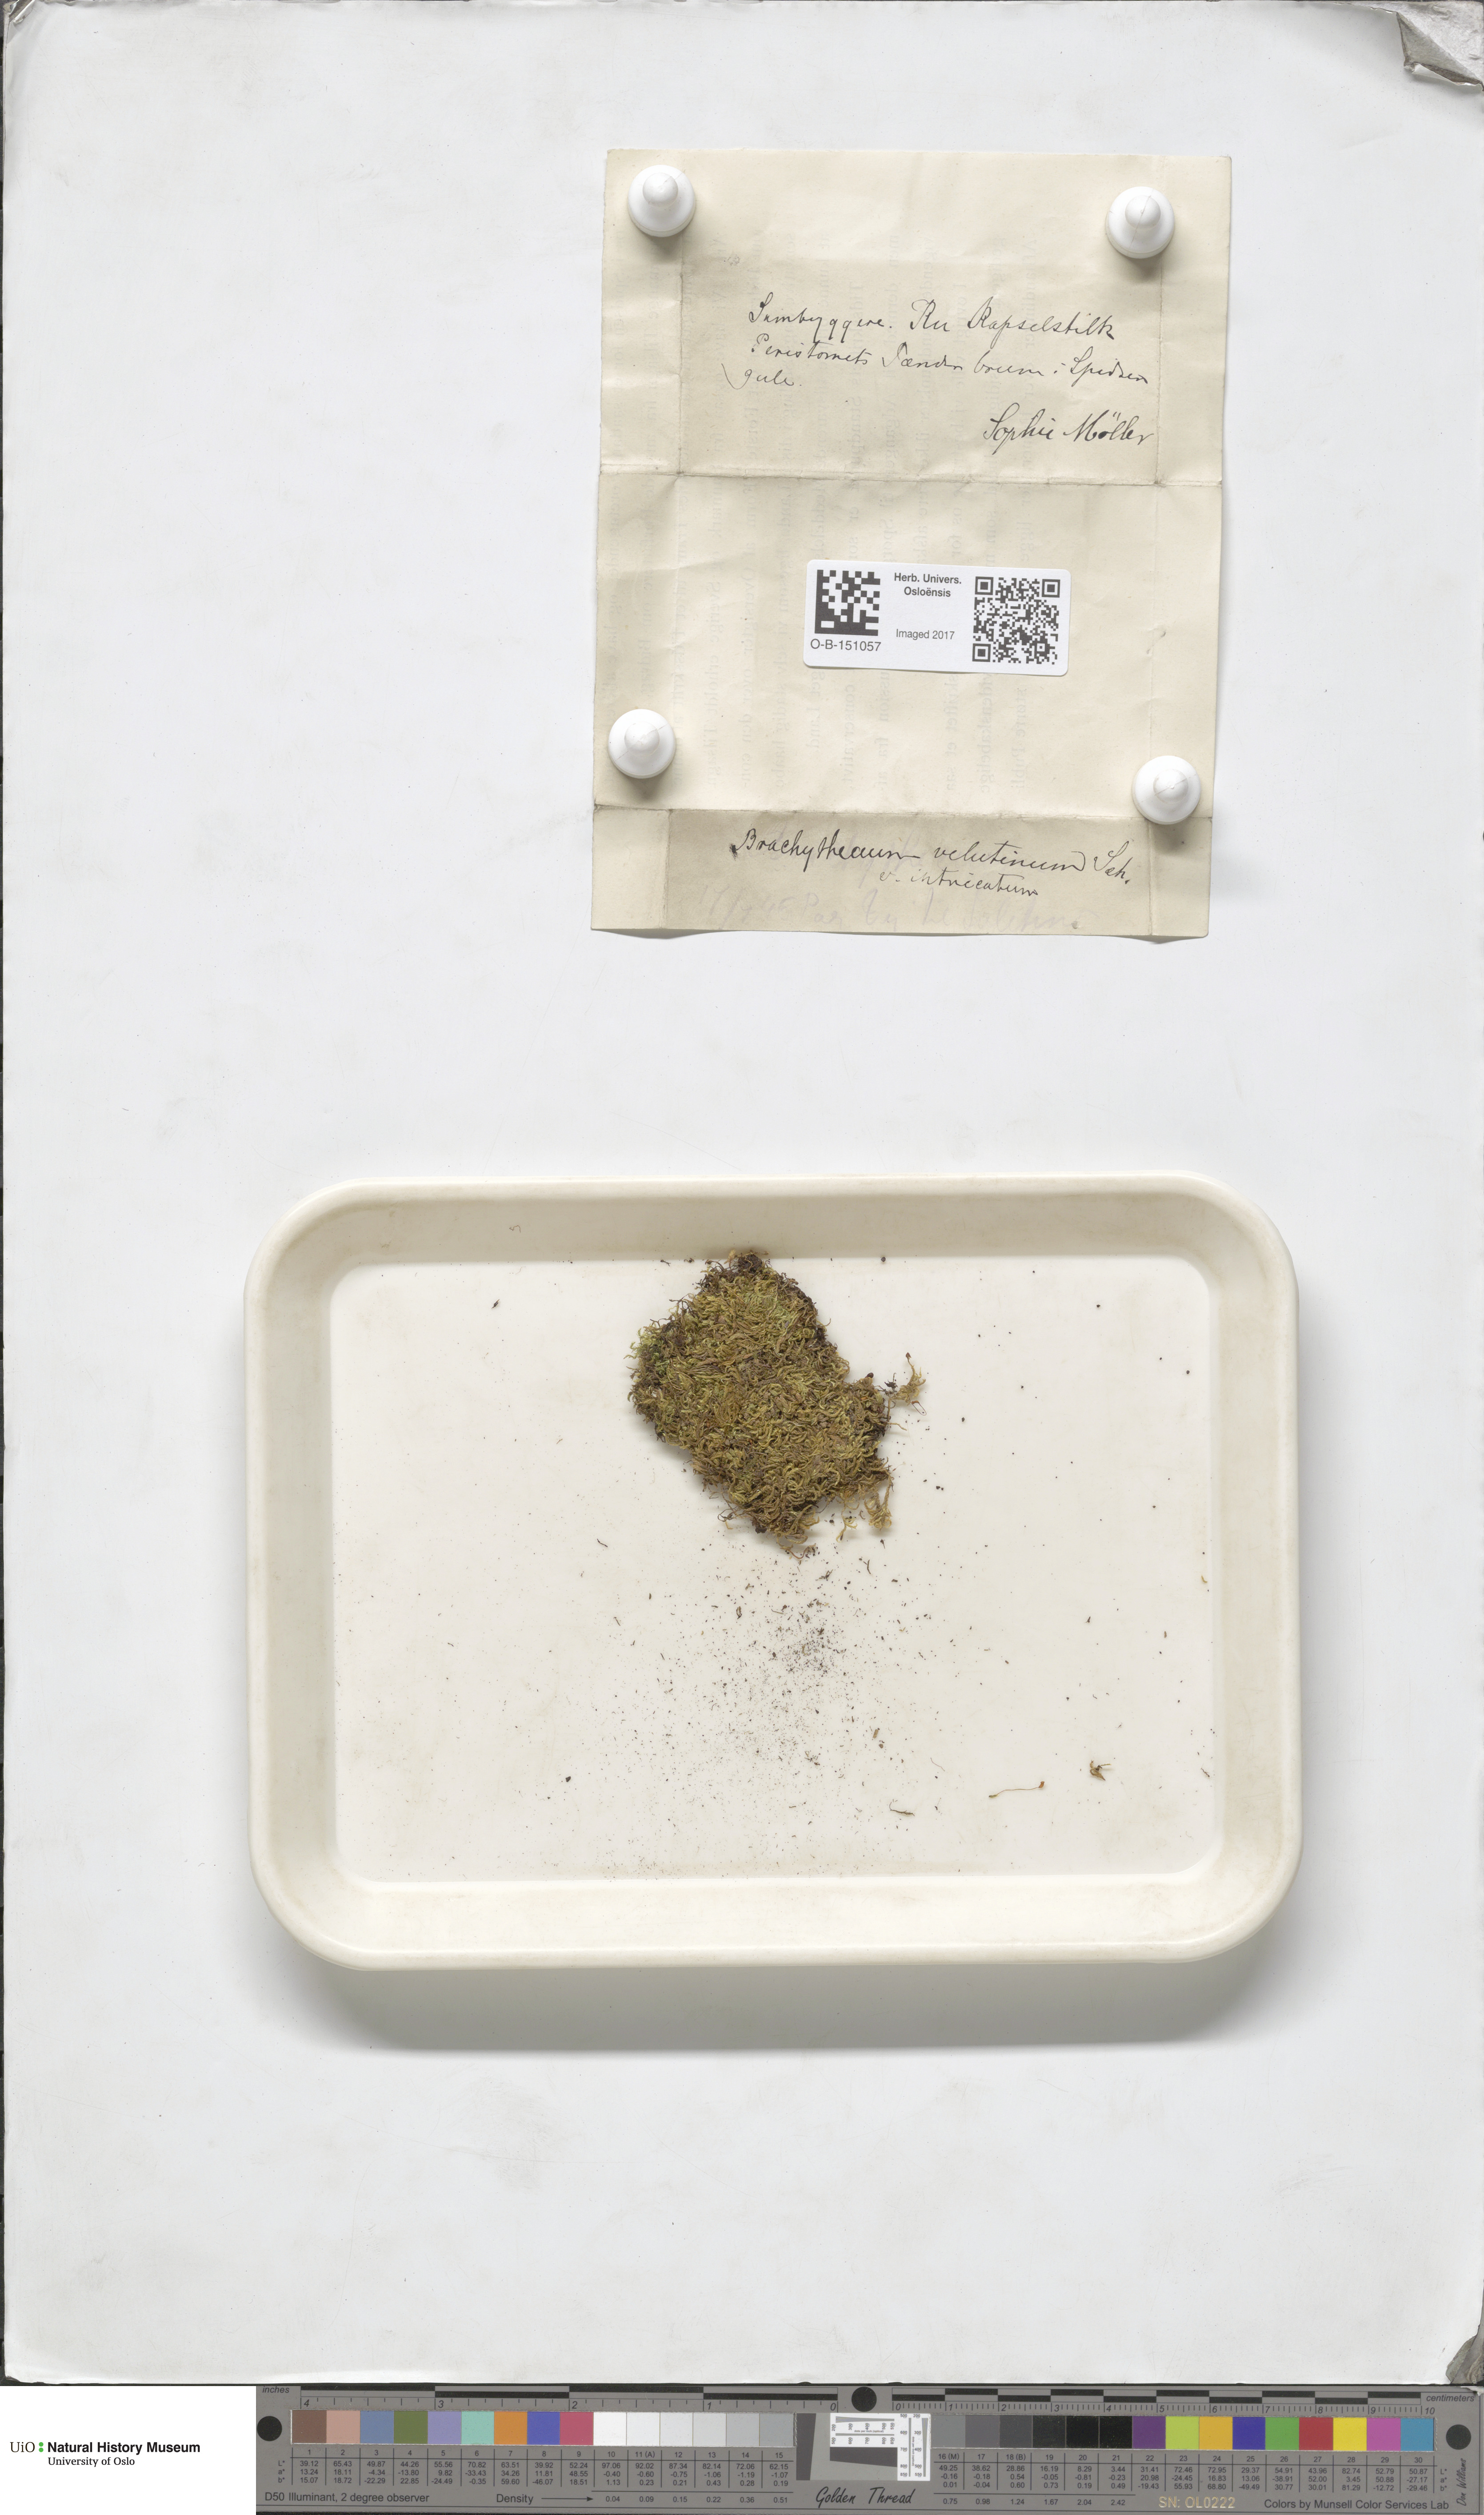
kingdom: Plantae
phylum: Bryophyta
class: Bryopsida
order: Hypnales
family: Brachytheciaceae
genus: Brachytheciastrum
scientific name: Brachytheciastrum velutinum
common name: Velvet feather-moss
